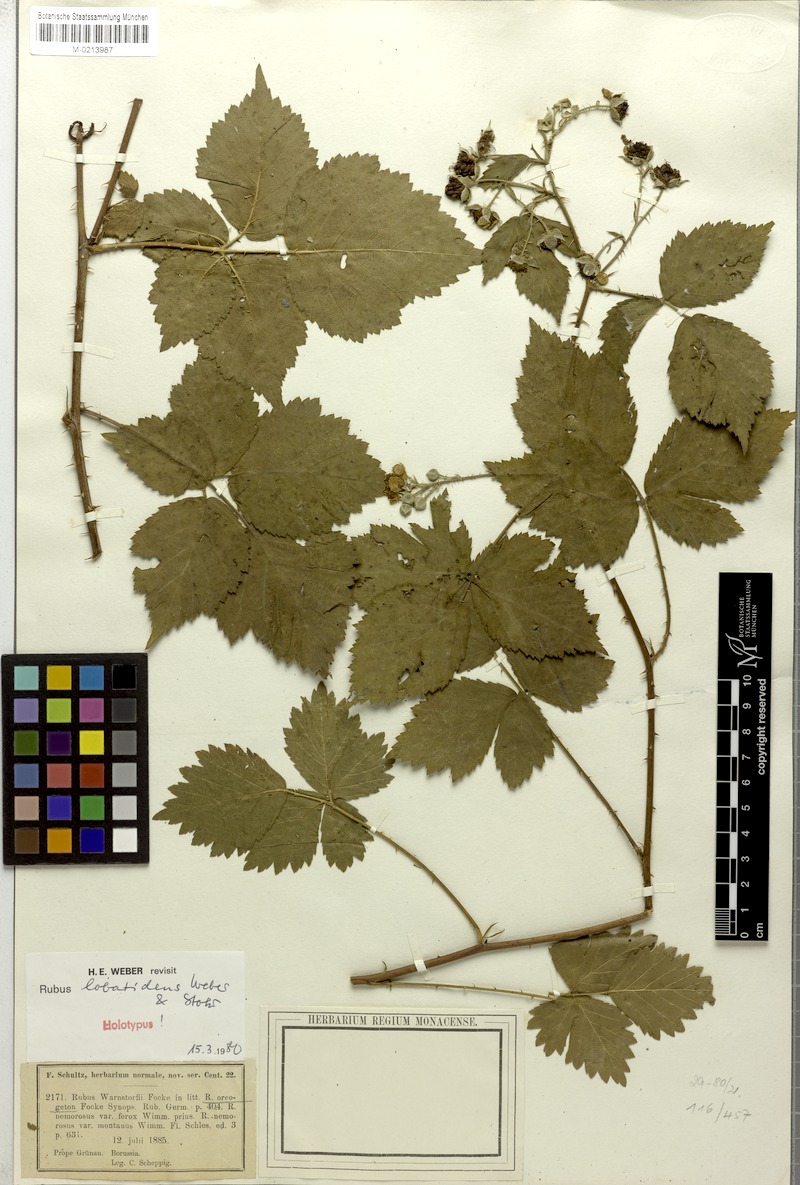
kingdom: Plantae
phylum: Tracheophyta
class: Magnoliopsida
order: Rosales
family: Rosaceae
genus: Rubus
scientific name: Rubus lobatidens
